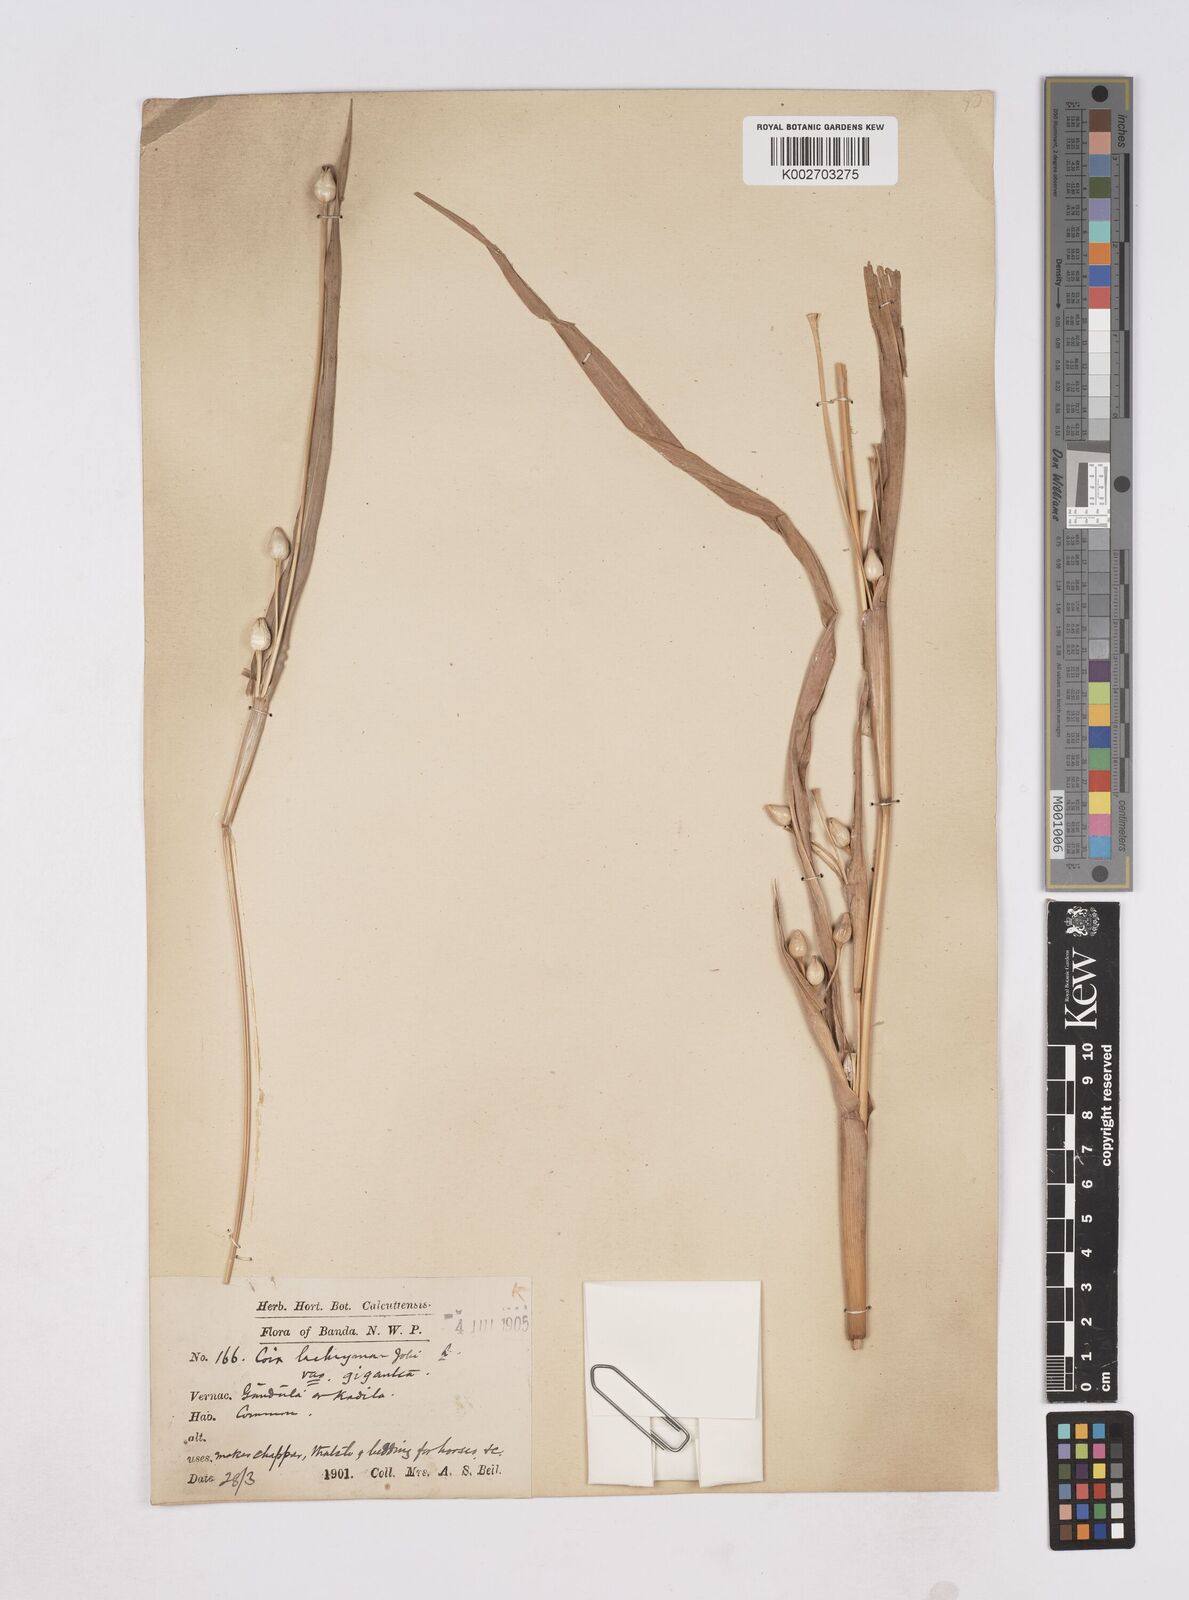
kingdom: Plantae
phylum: Tracheophyta
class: Liliopsida
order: Poales
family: Poaceae
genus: Coix
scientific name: Coix aquatica
